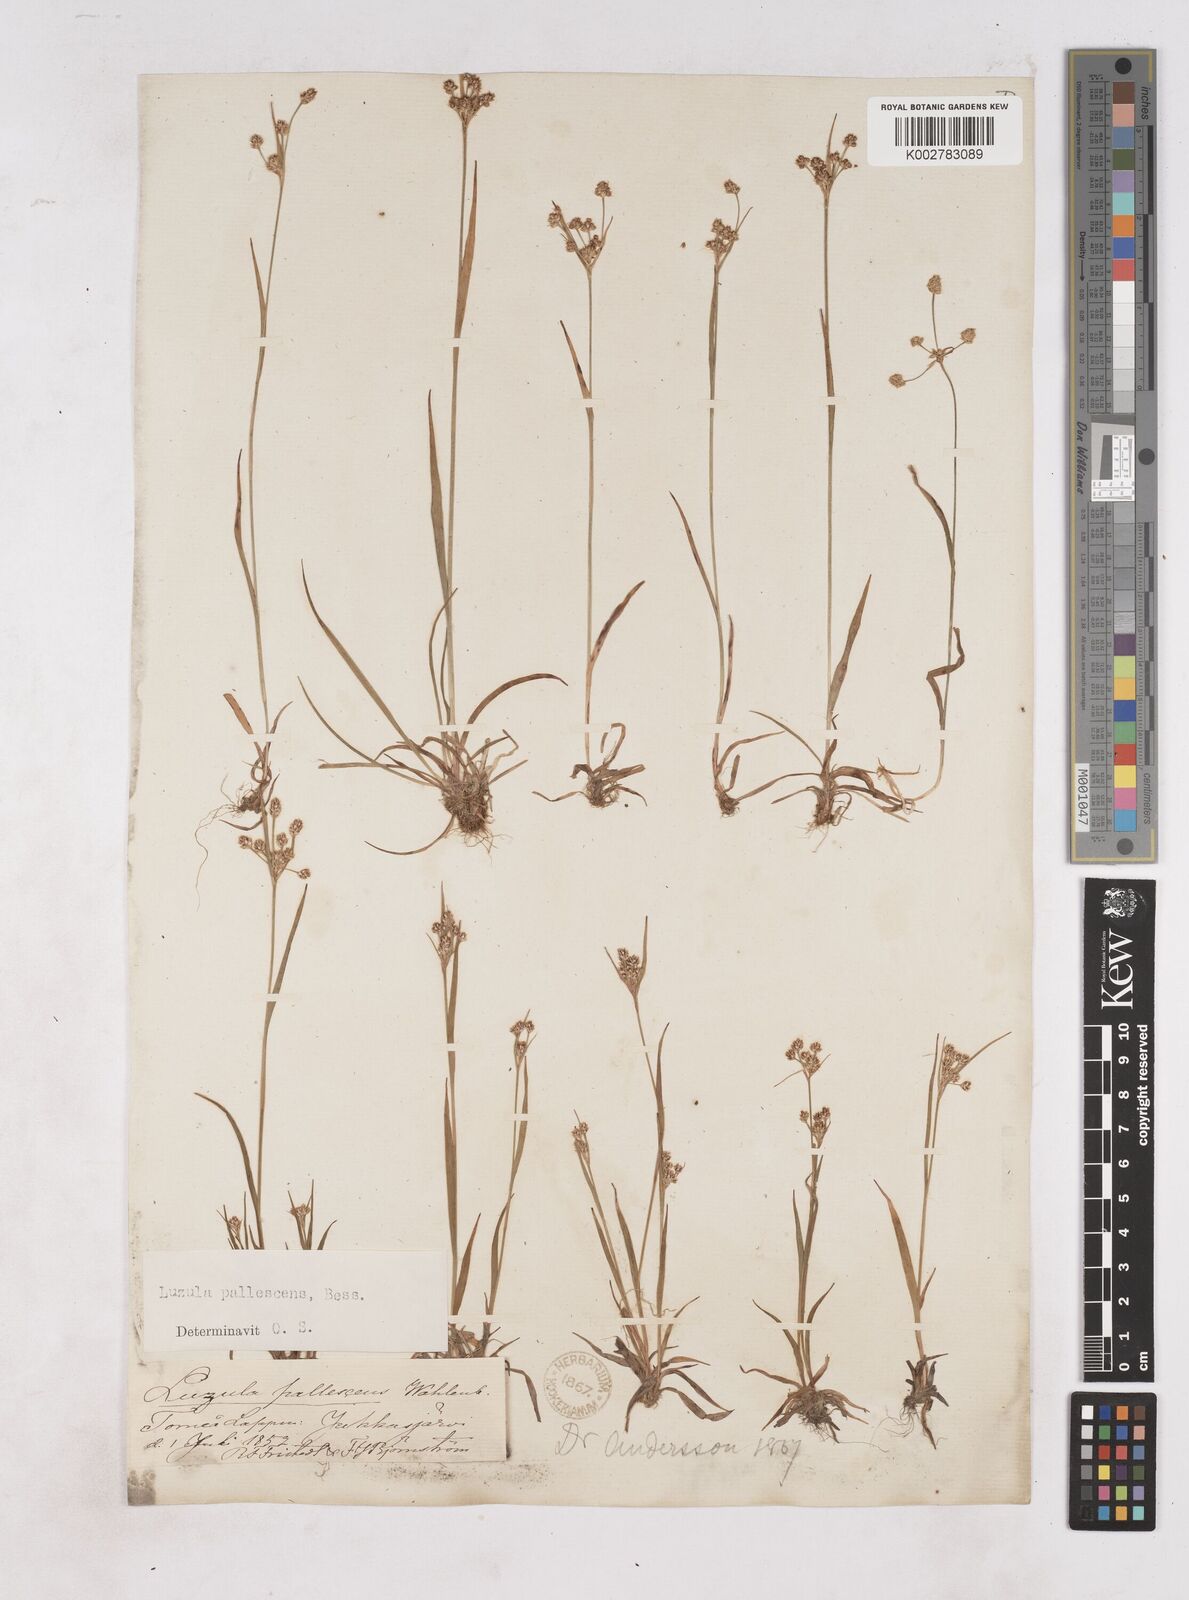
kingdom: Plantae
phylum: Tracheophyta
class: Liliopsida
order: Poales
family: Juncaceae
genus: Luzula
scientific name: Luzula pallescens
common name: Fen wood-rush
